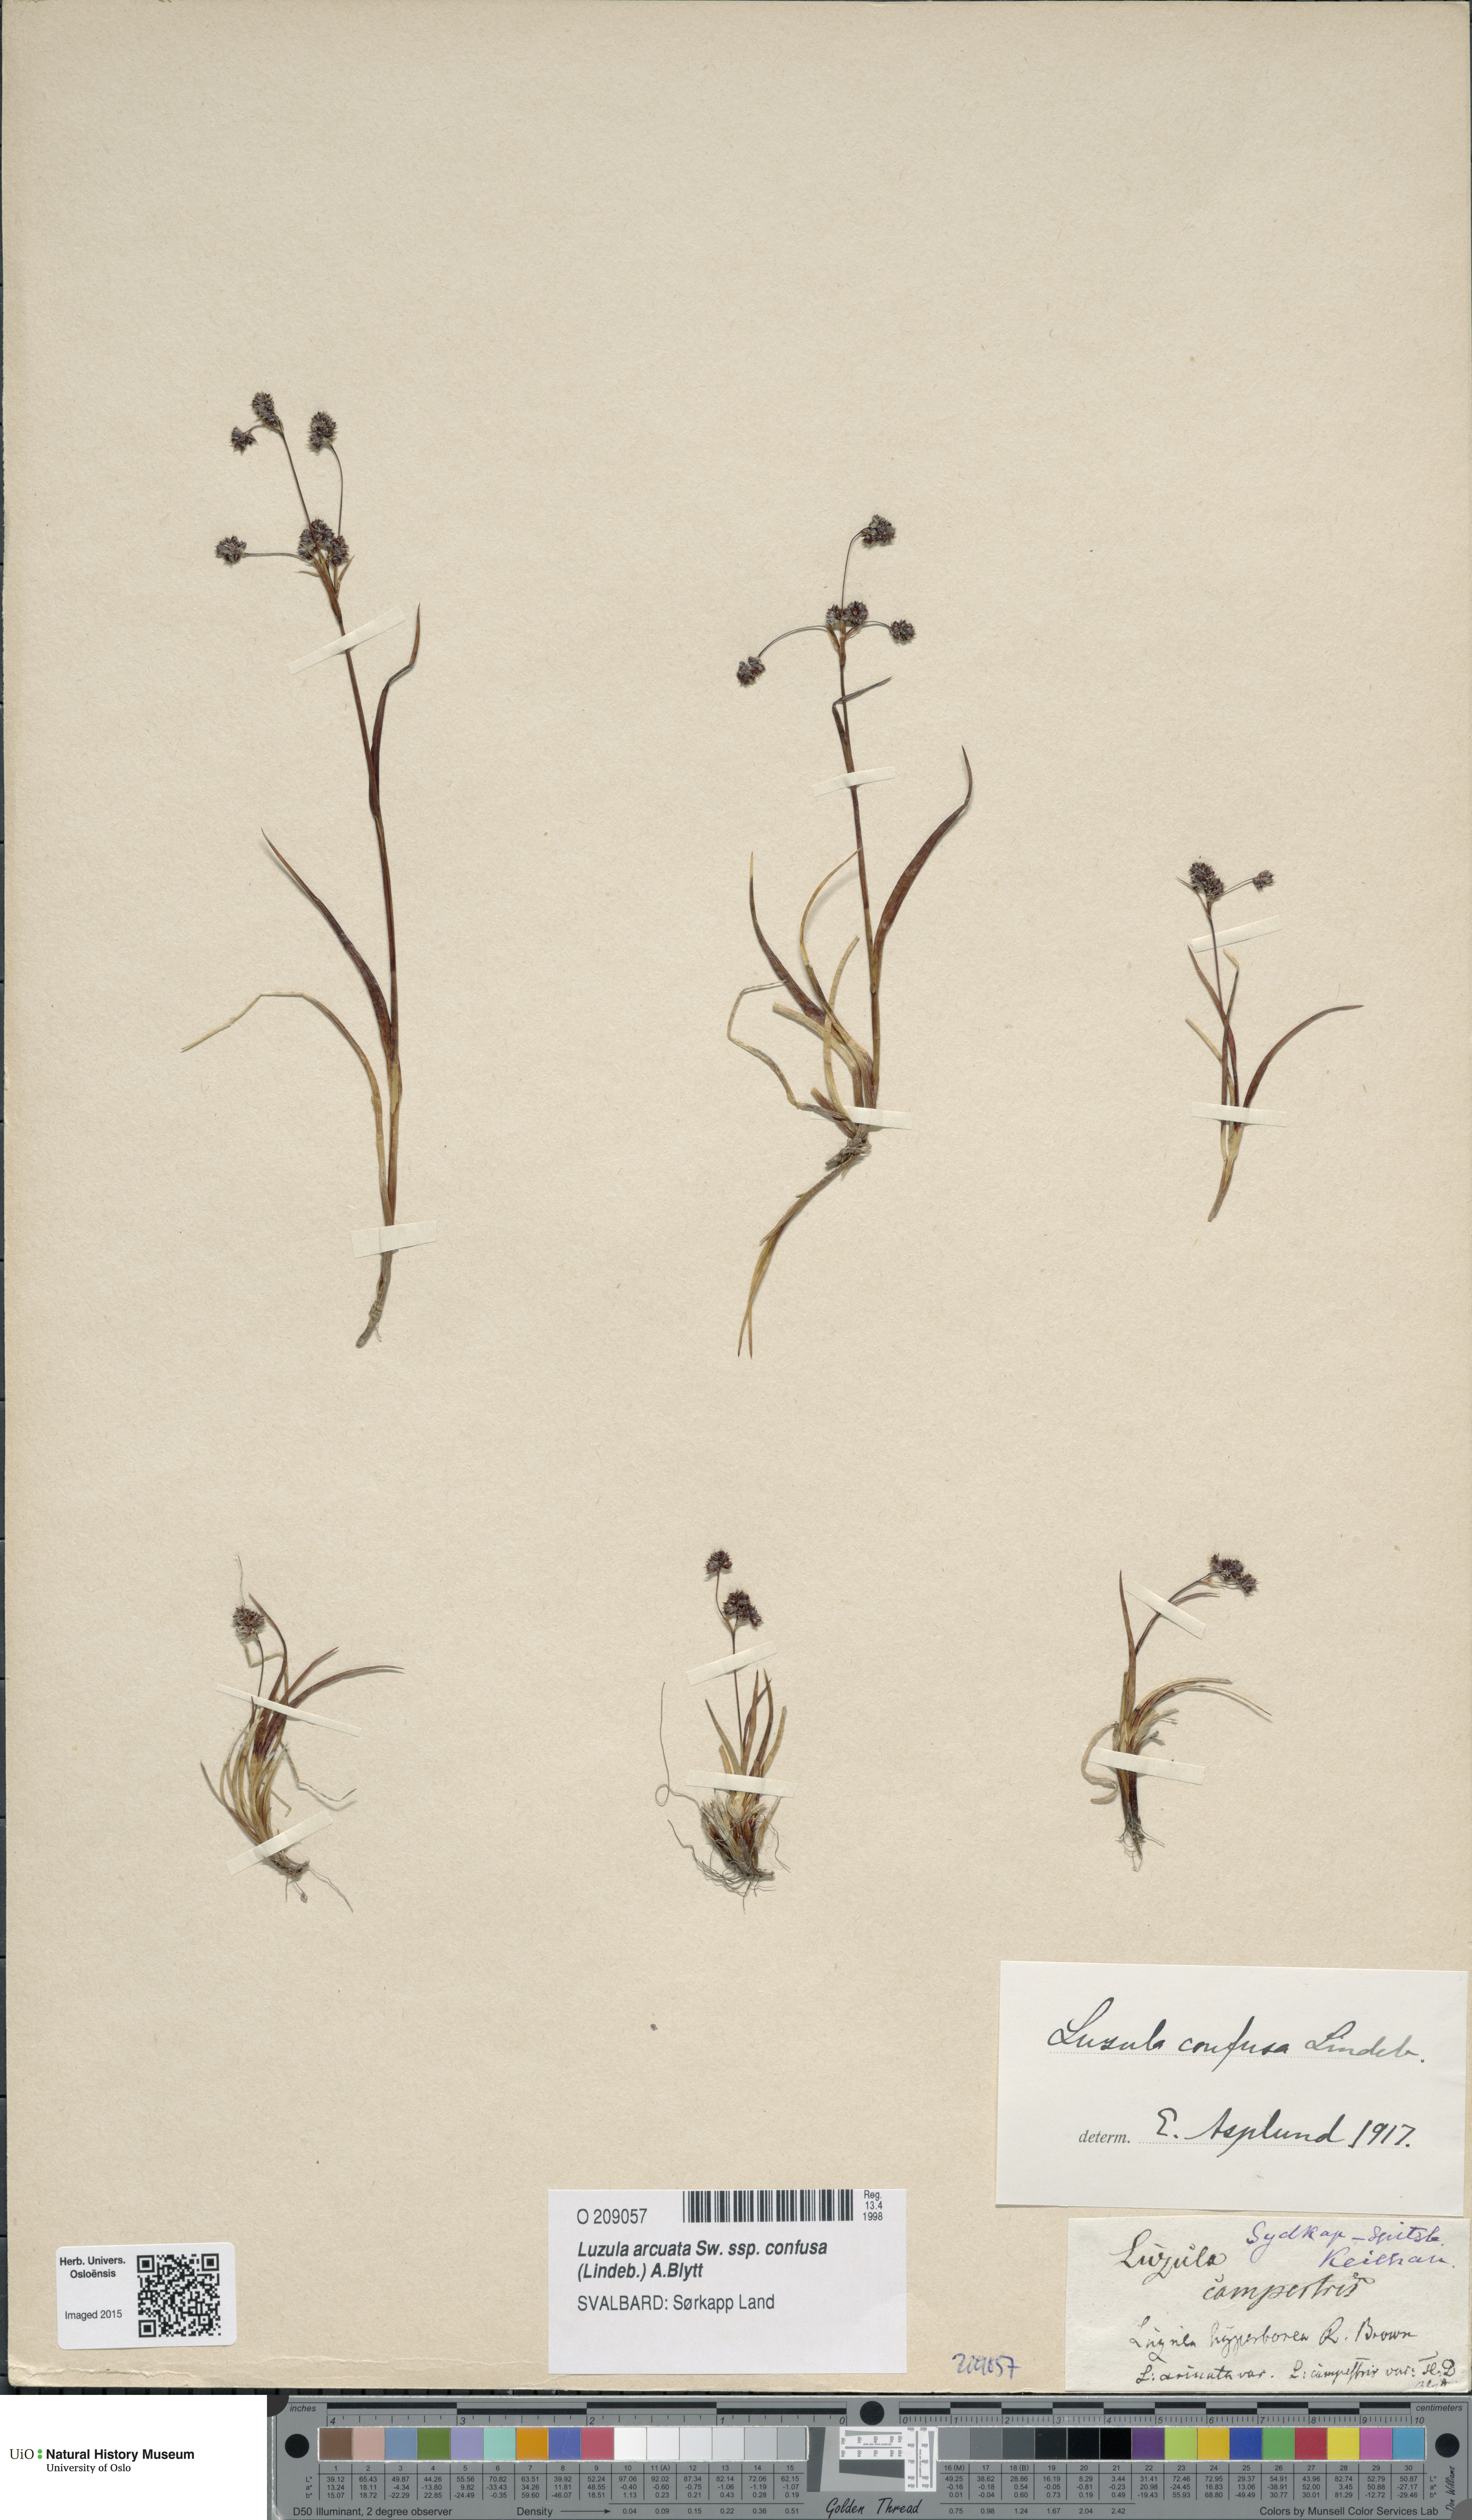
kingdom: Plantae
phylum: Tracheophyta
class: Liliopsida
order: Poales
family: Juncaceae
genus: Luzula
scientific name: Luzula confusa
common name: Northern wood rush
